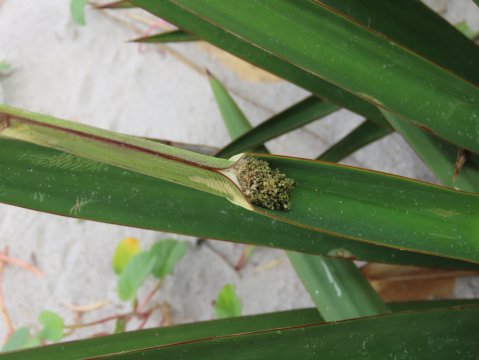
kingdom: Animalia
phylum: Arthropoda
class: Insecta
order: Lepidoptera
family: Hesperiidae
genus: Megathymus
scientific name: Megathymus yuccae
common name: Yucca Giant-Skipper
